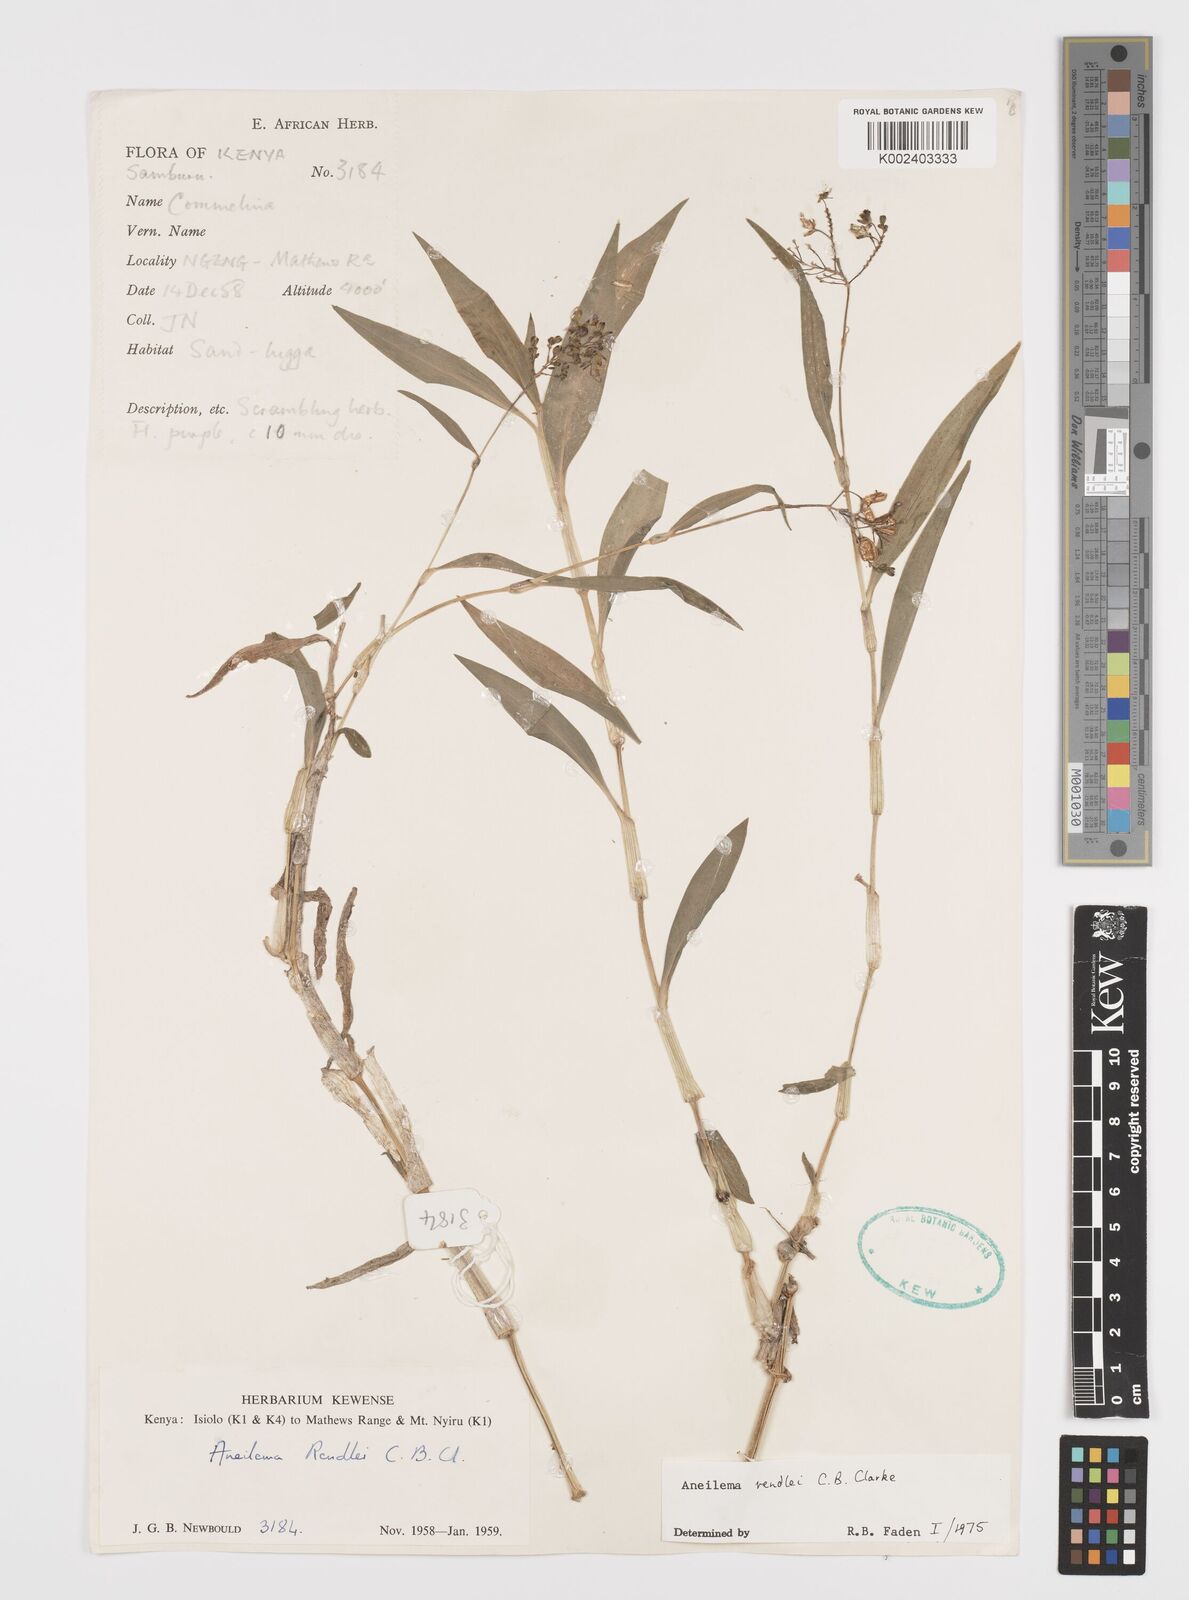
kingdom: Plantae
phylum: Tracheophyta
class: Liliopsida
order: Commelinales
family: Commelinaceae
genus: Aneilema
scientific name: Aneilema rendlei
